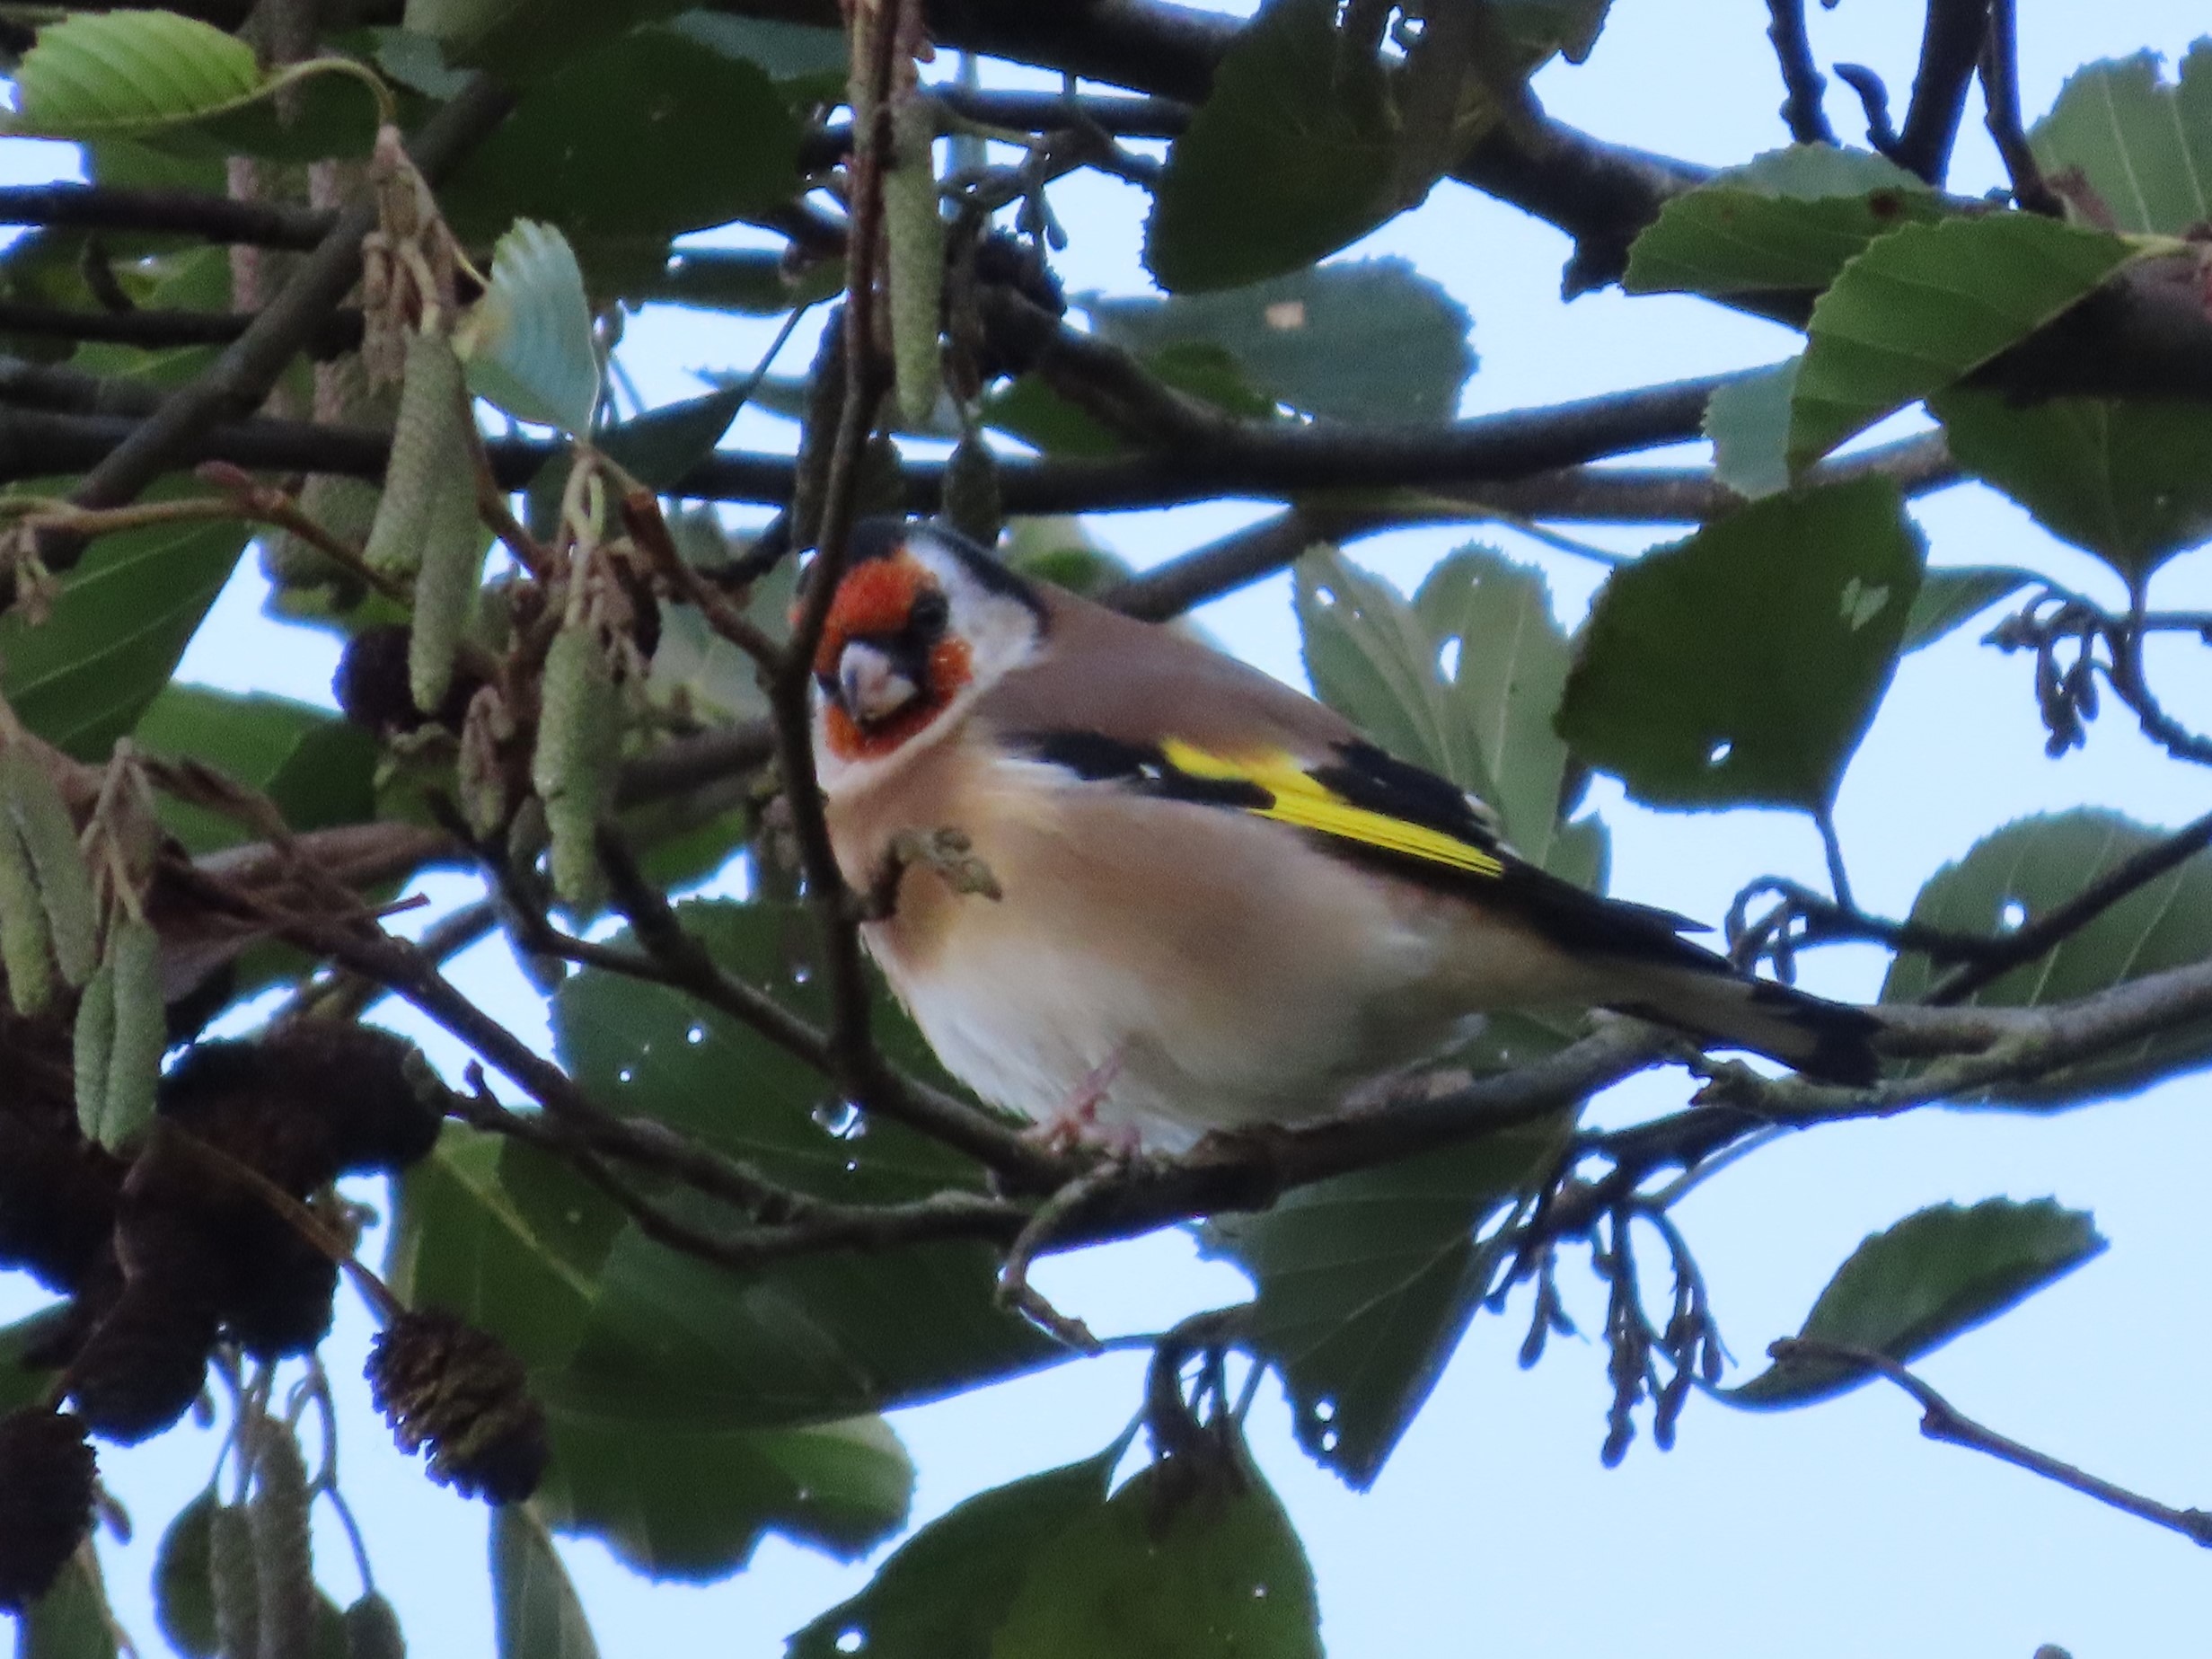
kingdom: Animalia
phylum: Chordata
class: Aves
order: Passeriformes
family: Fringillidae
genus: Carduelis
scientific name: Carduelis carduelis
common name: Stillits
